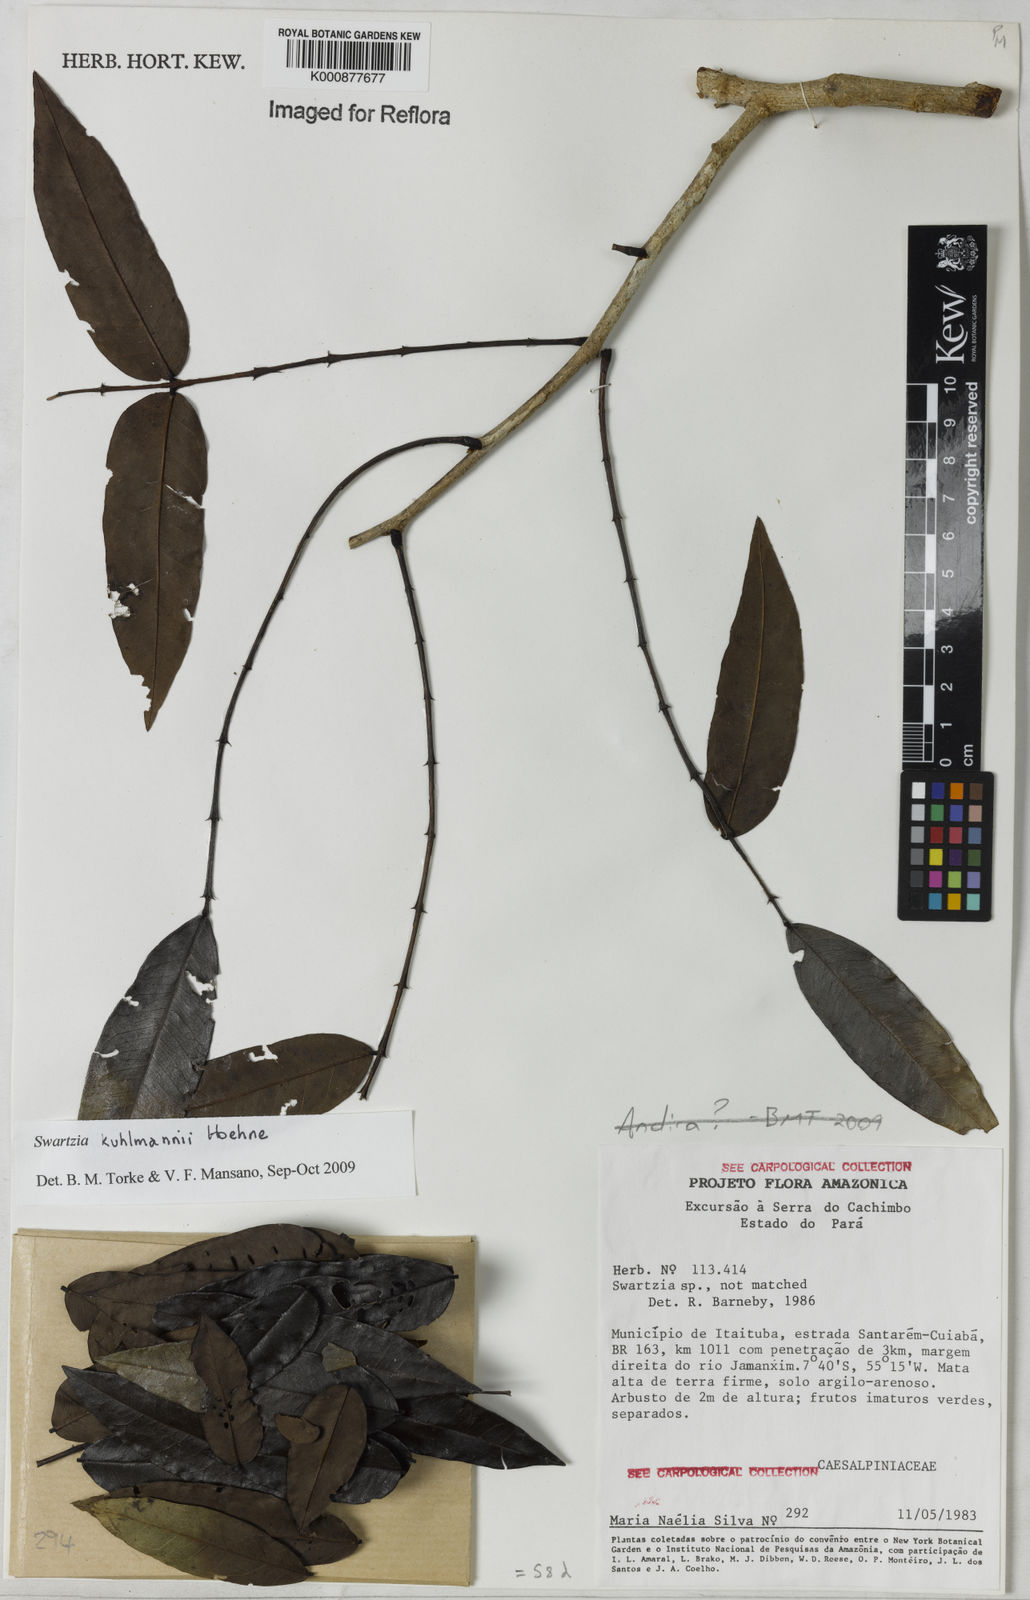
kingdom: Plantae
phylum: Tracheophyta
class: Magnoliopsida
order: Fabales
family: Fabaceae
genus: Swartzia
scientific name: Swartzia kuhlmannii
